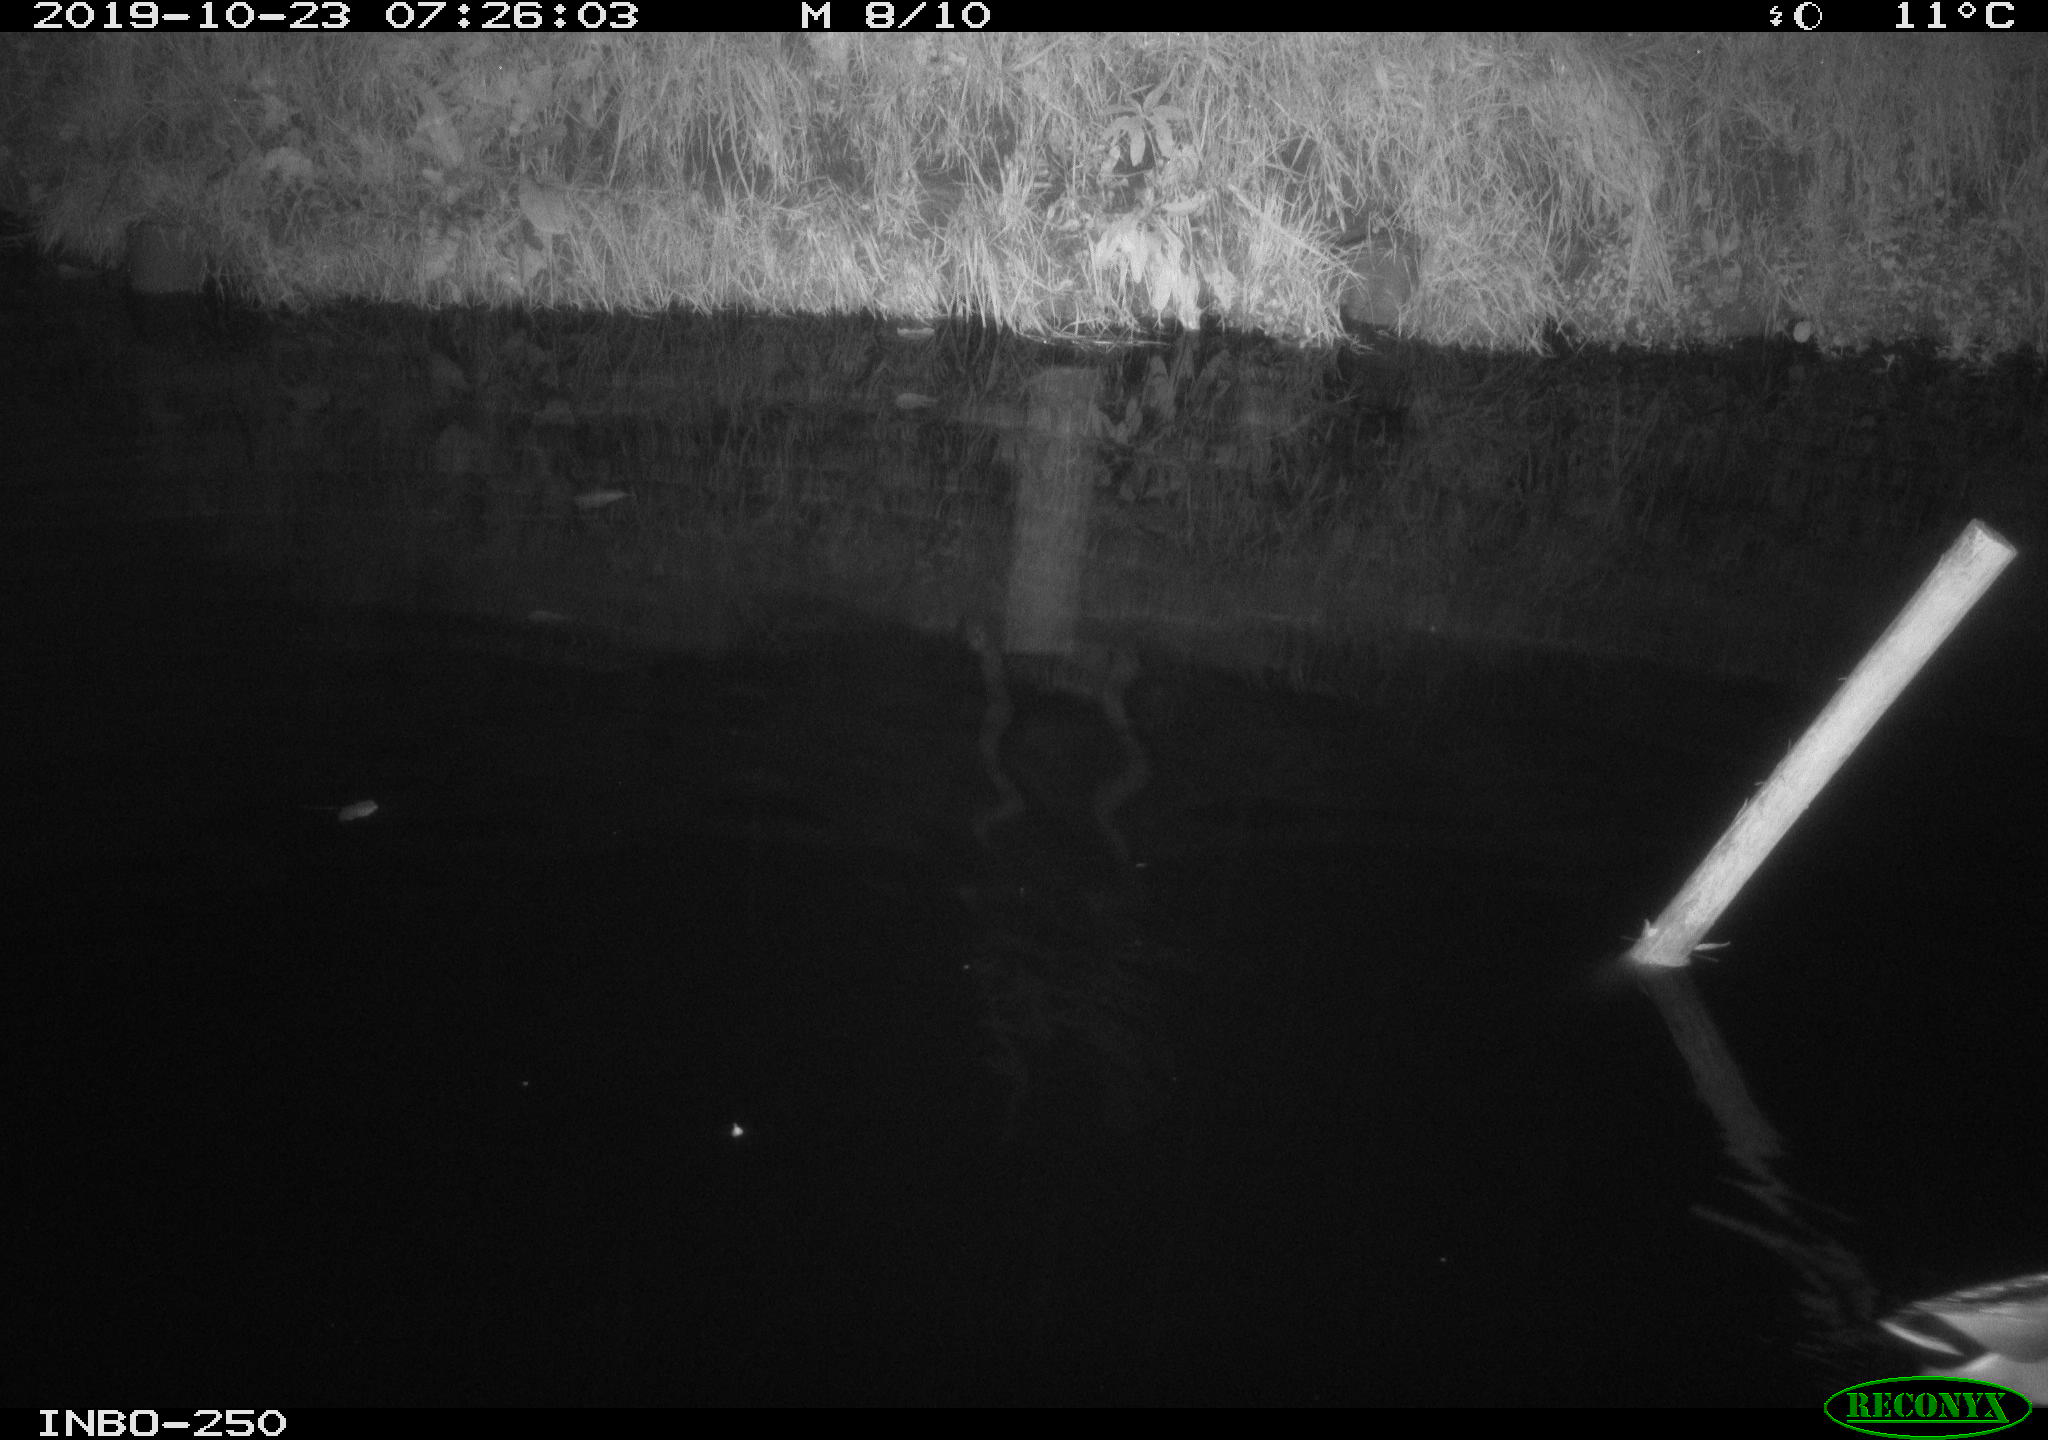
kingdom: Animalia
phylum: Chordata
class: Aves
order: Anseriformes
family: Anatidae
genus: Anas
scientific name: Anas platyrhynchos
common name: Mallard
